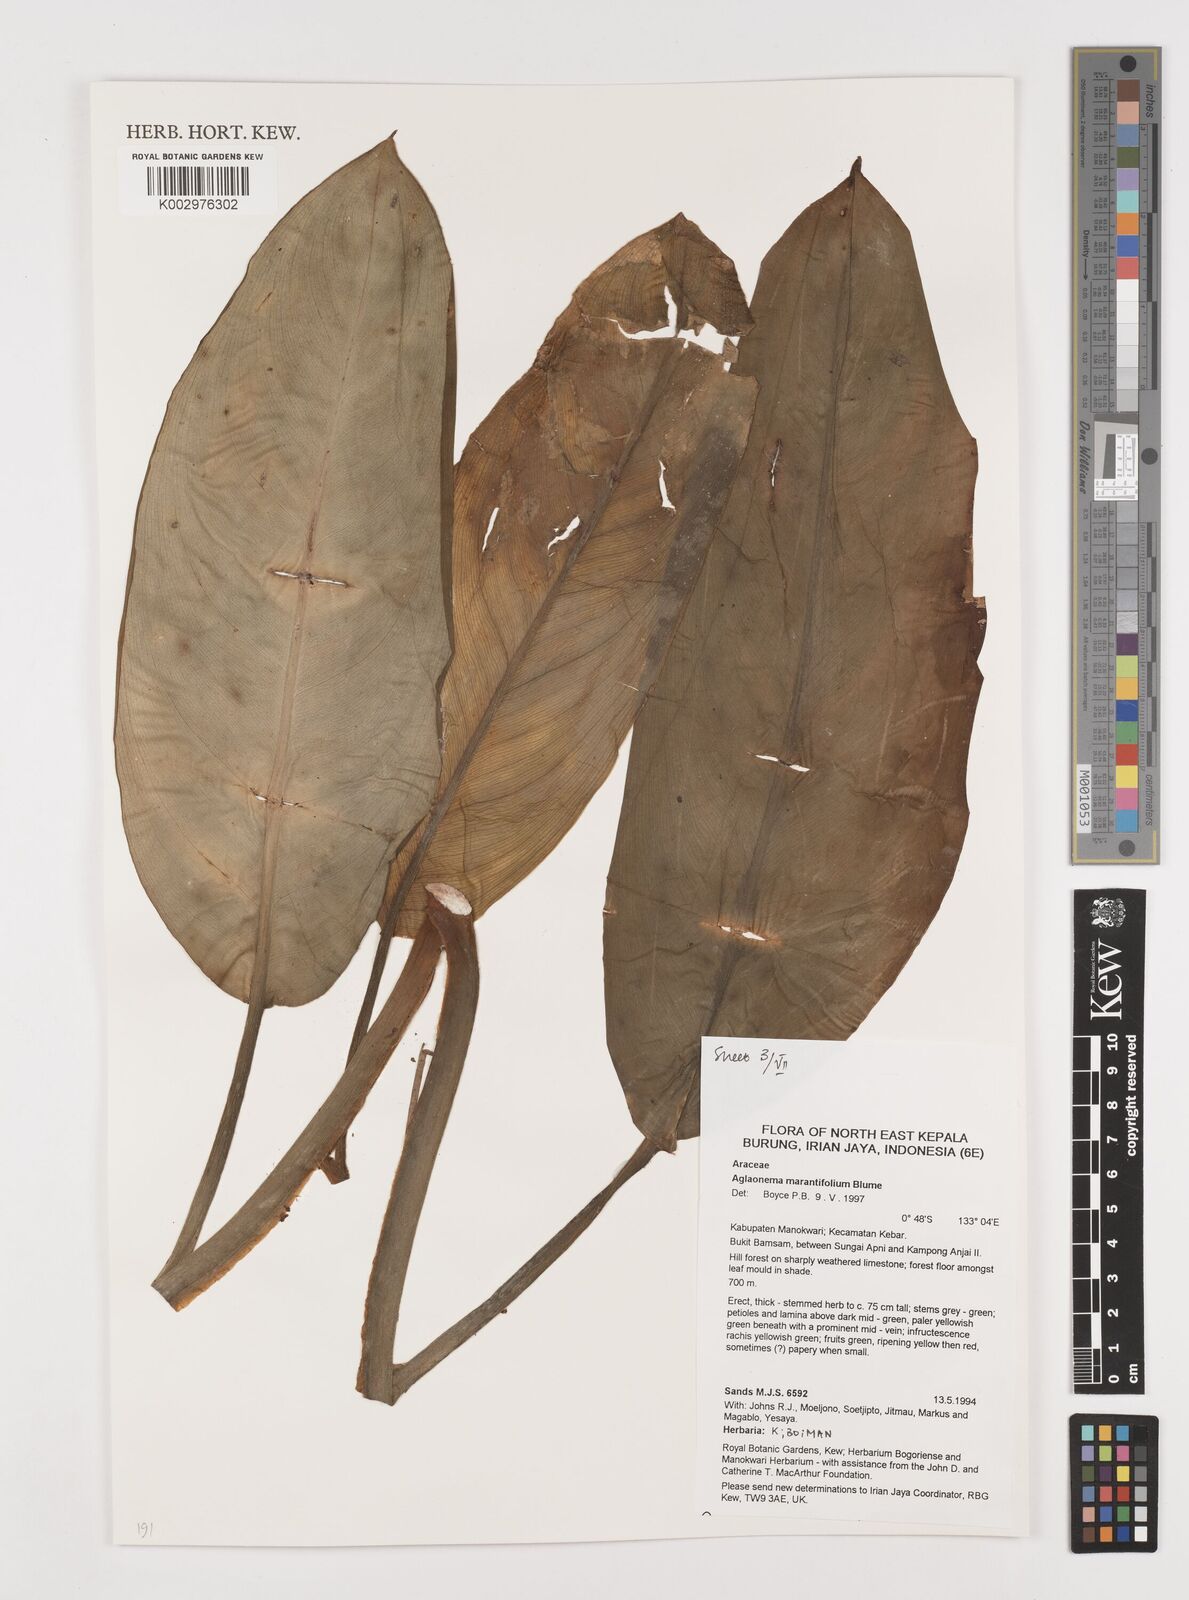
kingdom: Plantae
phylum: Tracheophyta
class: Liliopsida
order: Alismatales
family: Araceae
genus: Aglaonema
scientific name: Aglaonema marantifolium
